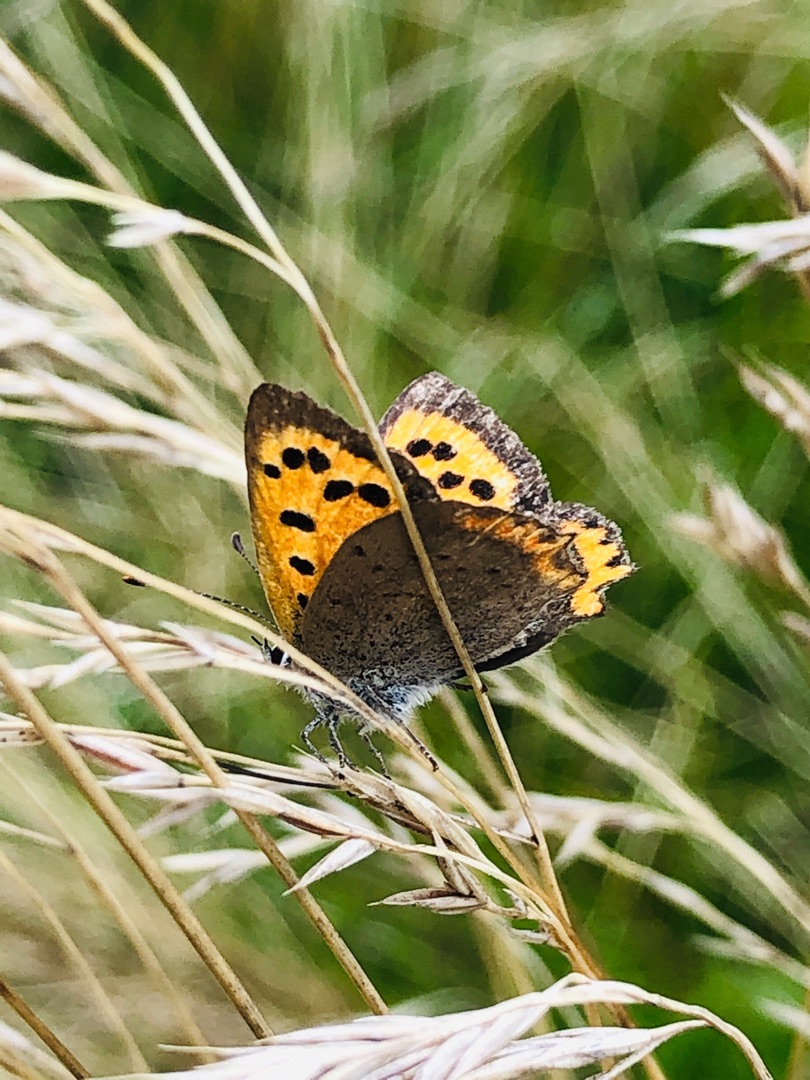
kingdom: Animalia
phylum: Arthropoda
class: Insecta
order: Lepidoptera
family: Lycaenidae
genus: Lycaena
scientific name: Lycaena phlaeas
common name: Lille ildfugl
